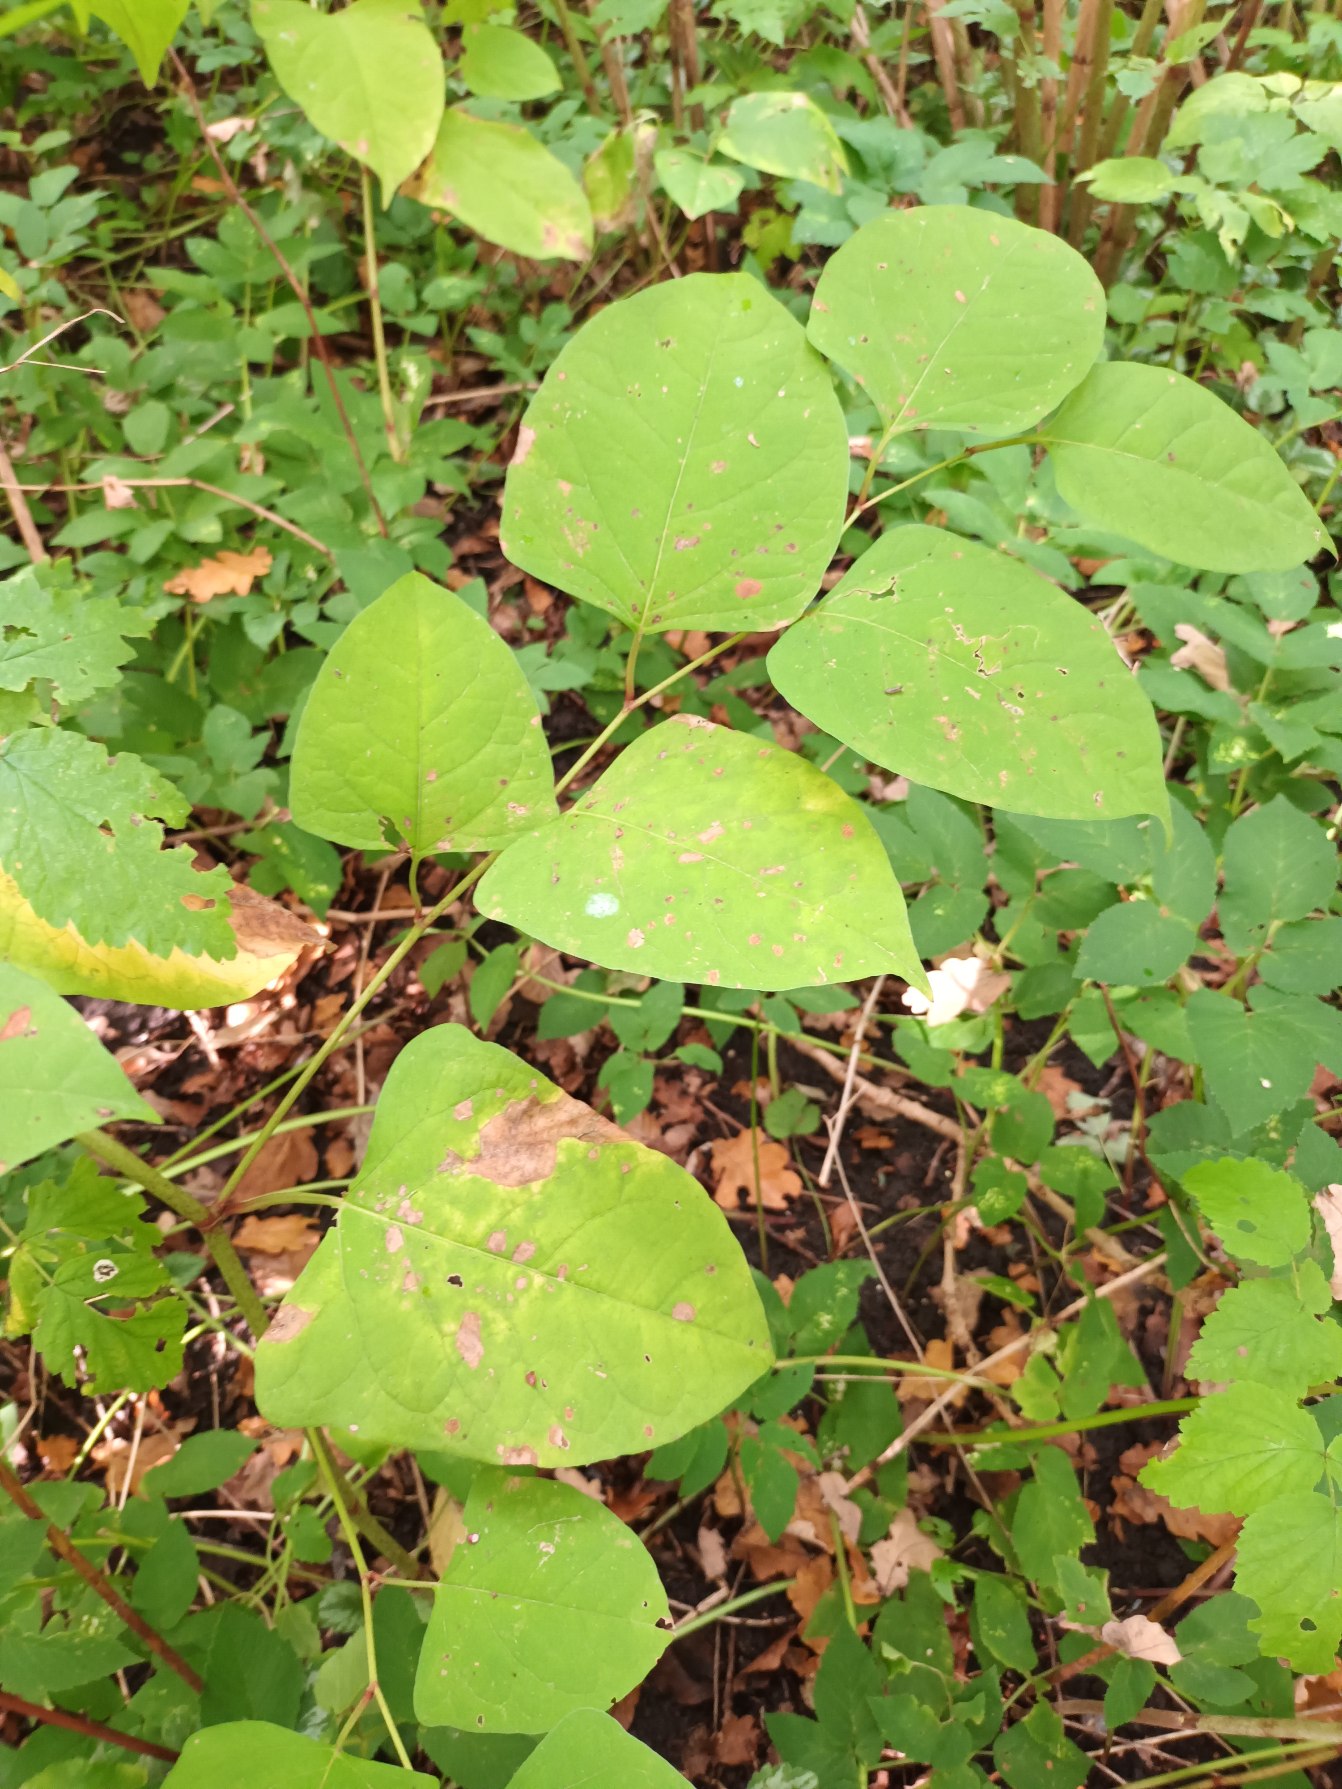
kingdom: Plantae
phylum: Tracheophyta
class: Magnoliopsida
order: Caryophyllales
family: Polygonaceae
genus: Reynoutria
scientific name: Reynoutria japonica
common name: Japan-pileurt
